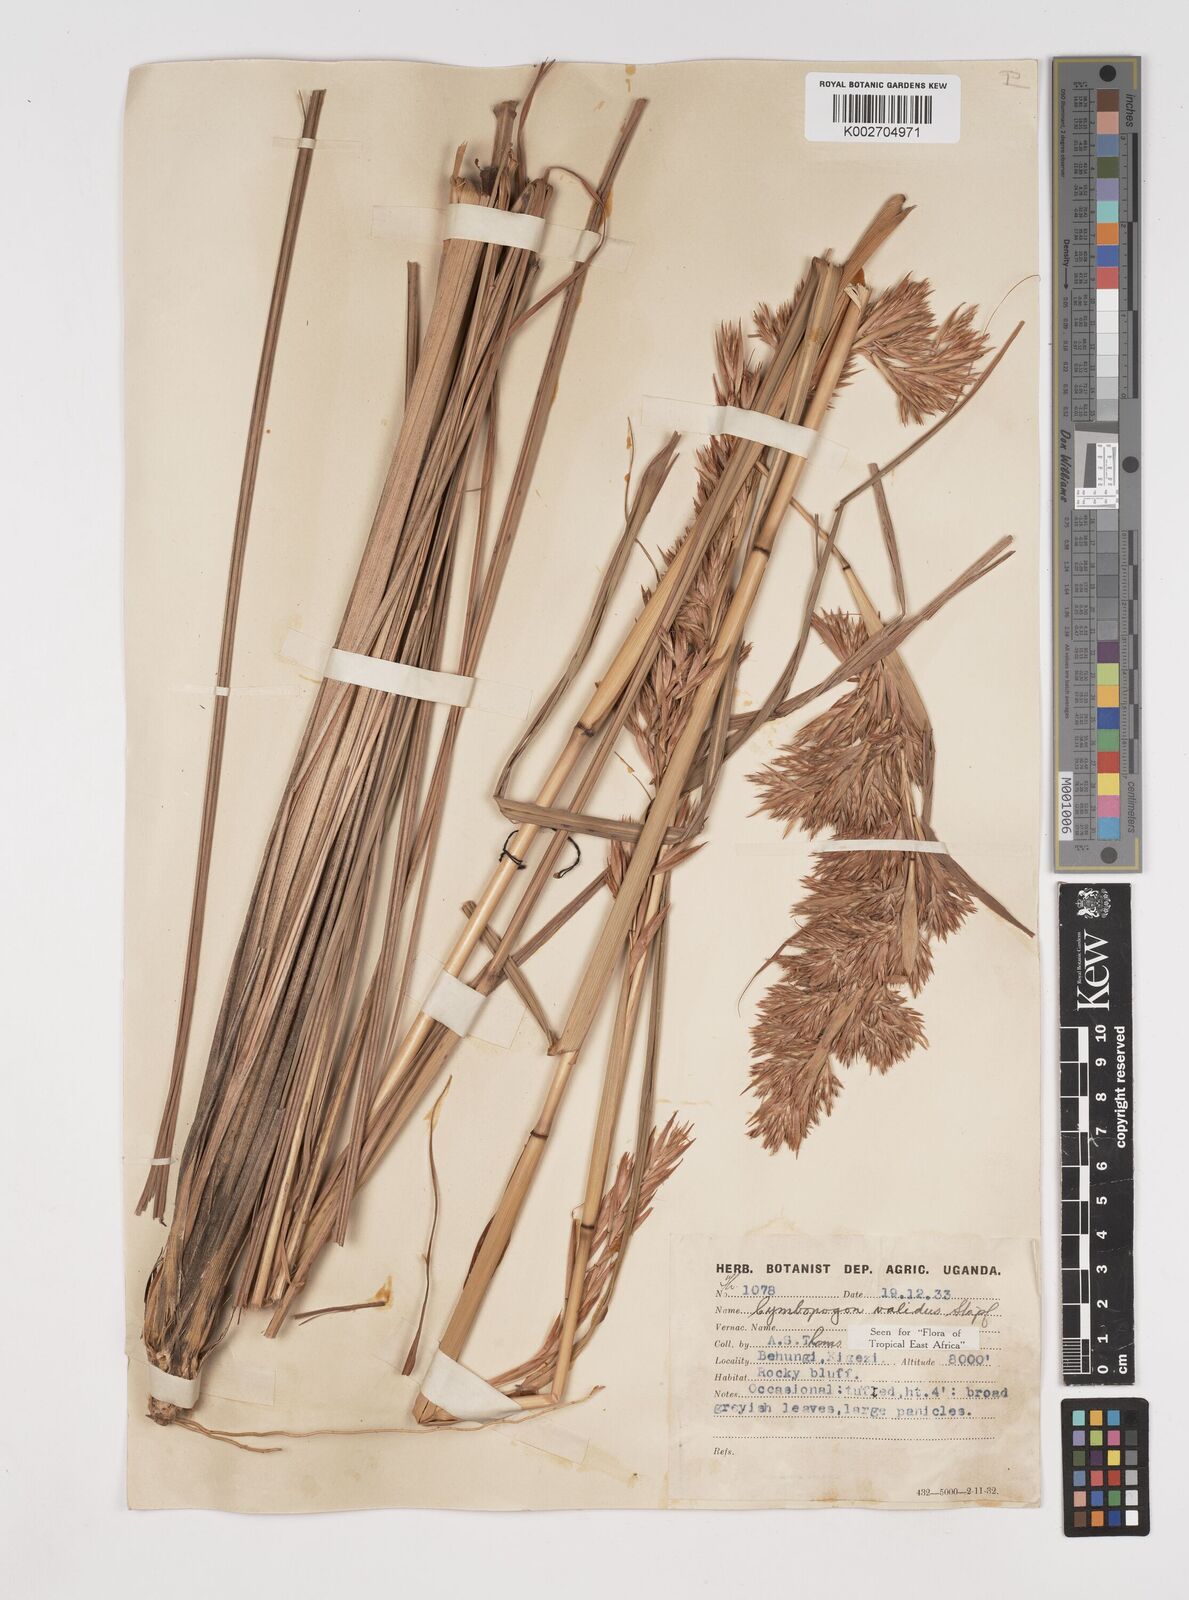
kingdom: Plantae
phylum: Tracheophyta
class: Liliopsida
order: Poales
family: Poaceae
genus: Cymbopogon
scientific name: Cymbopogon nardus
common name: Giant turpentine grass
